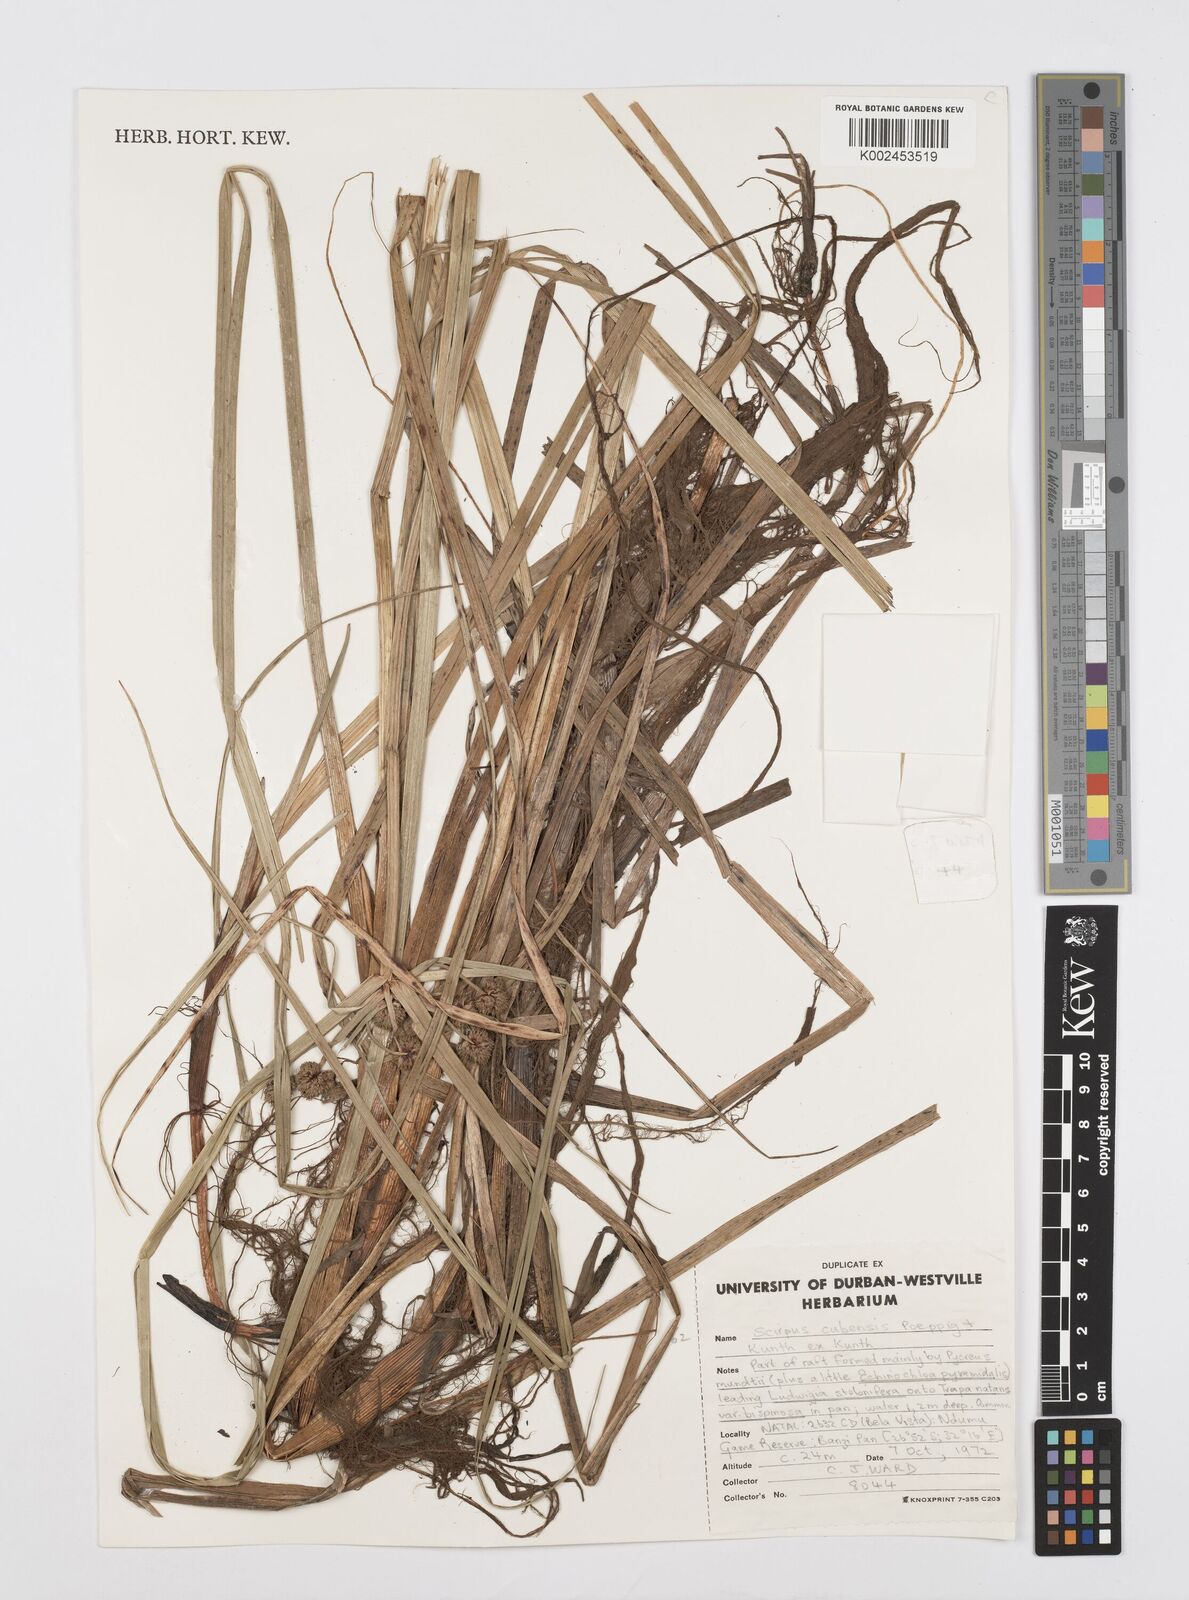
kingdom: Plantae
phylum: Tracheophyta
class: Liliopsida
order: Poales
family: Cyperaceae
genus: Cyperus
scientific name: Cyperus elegans
